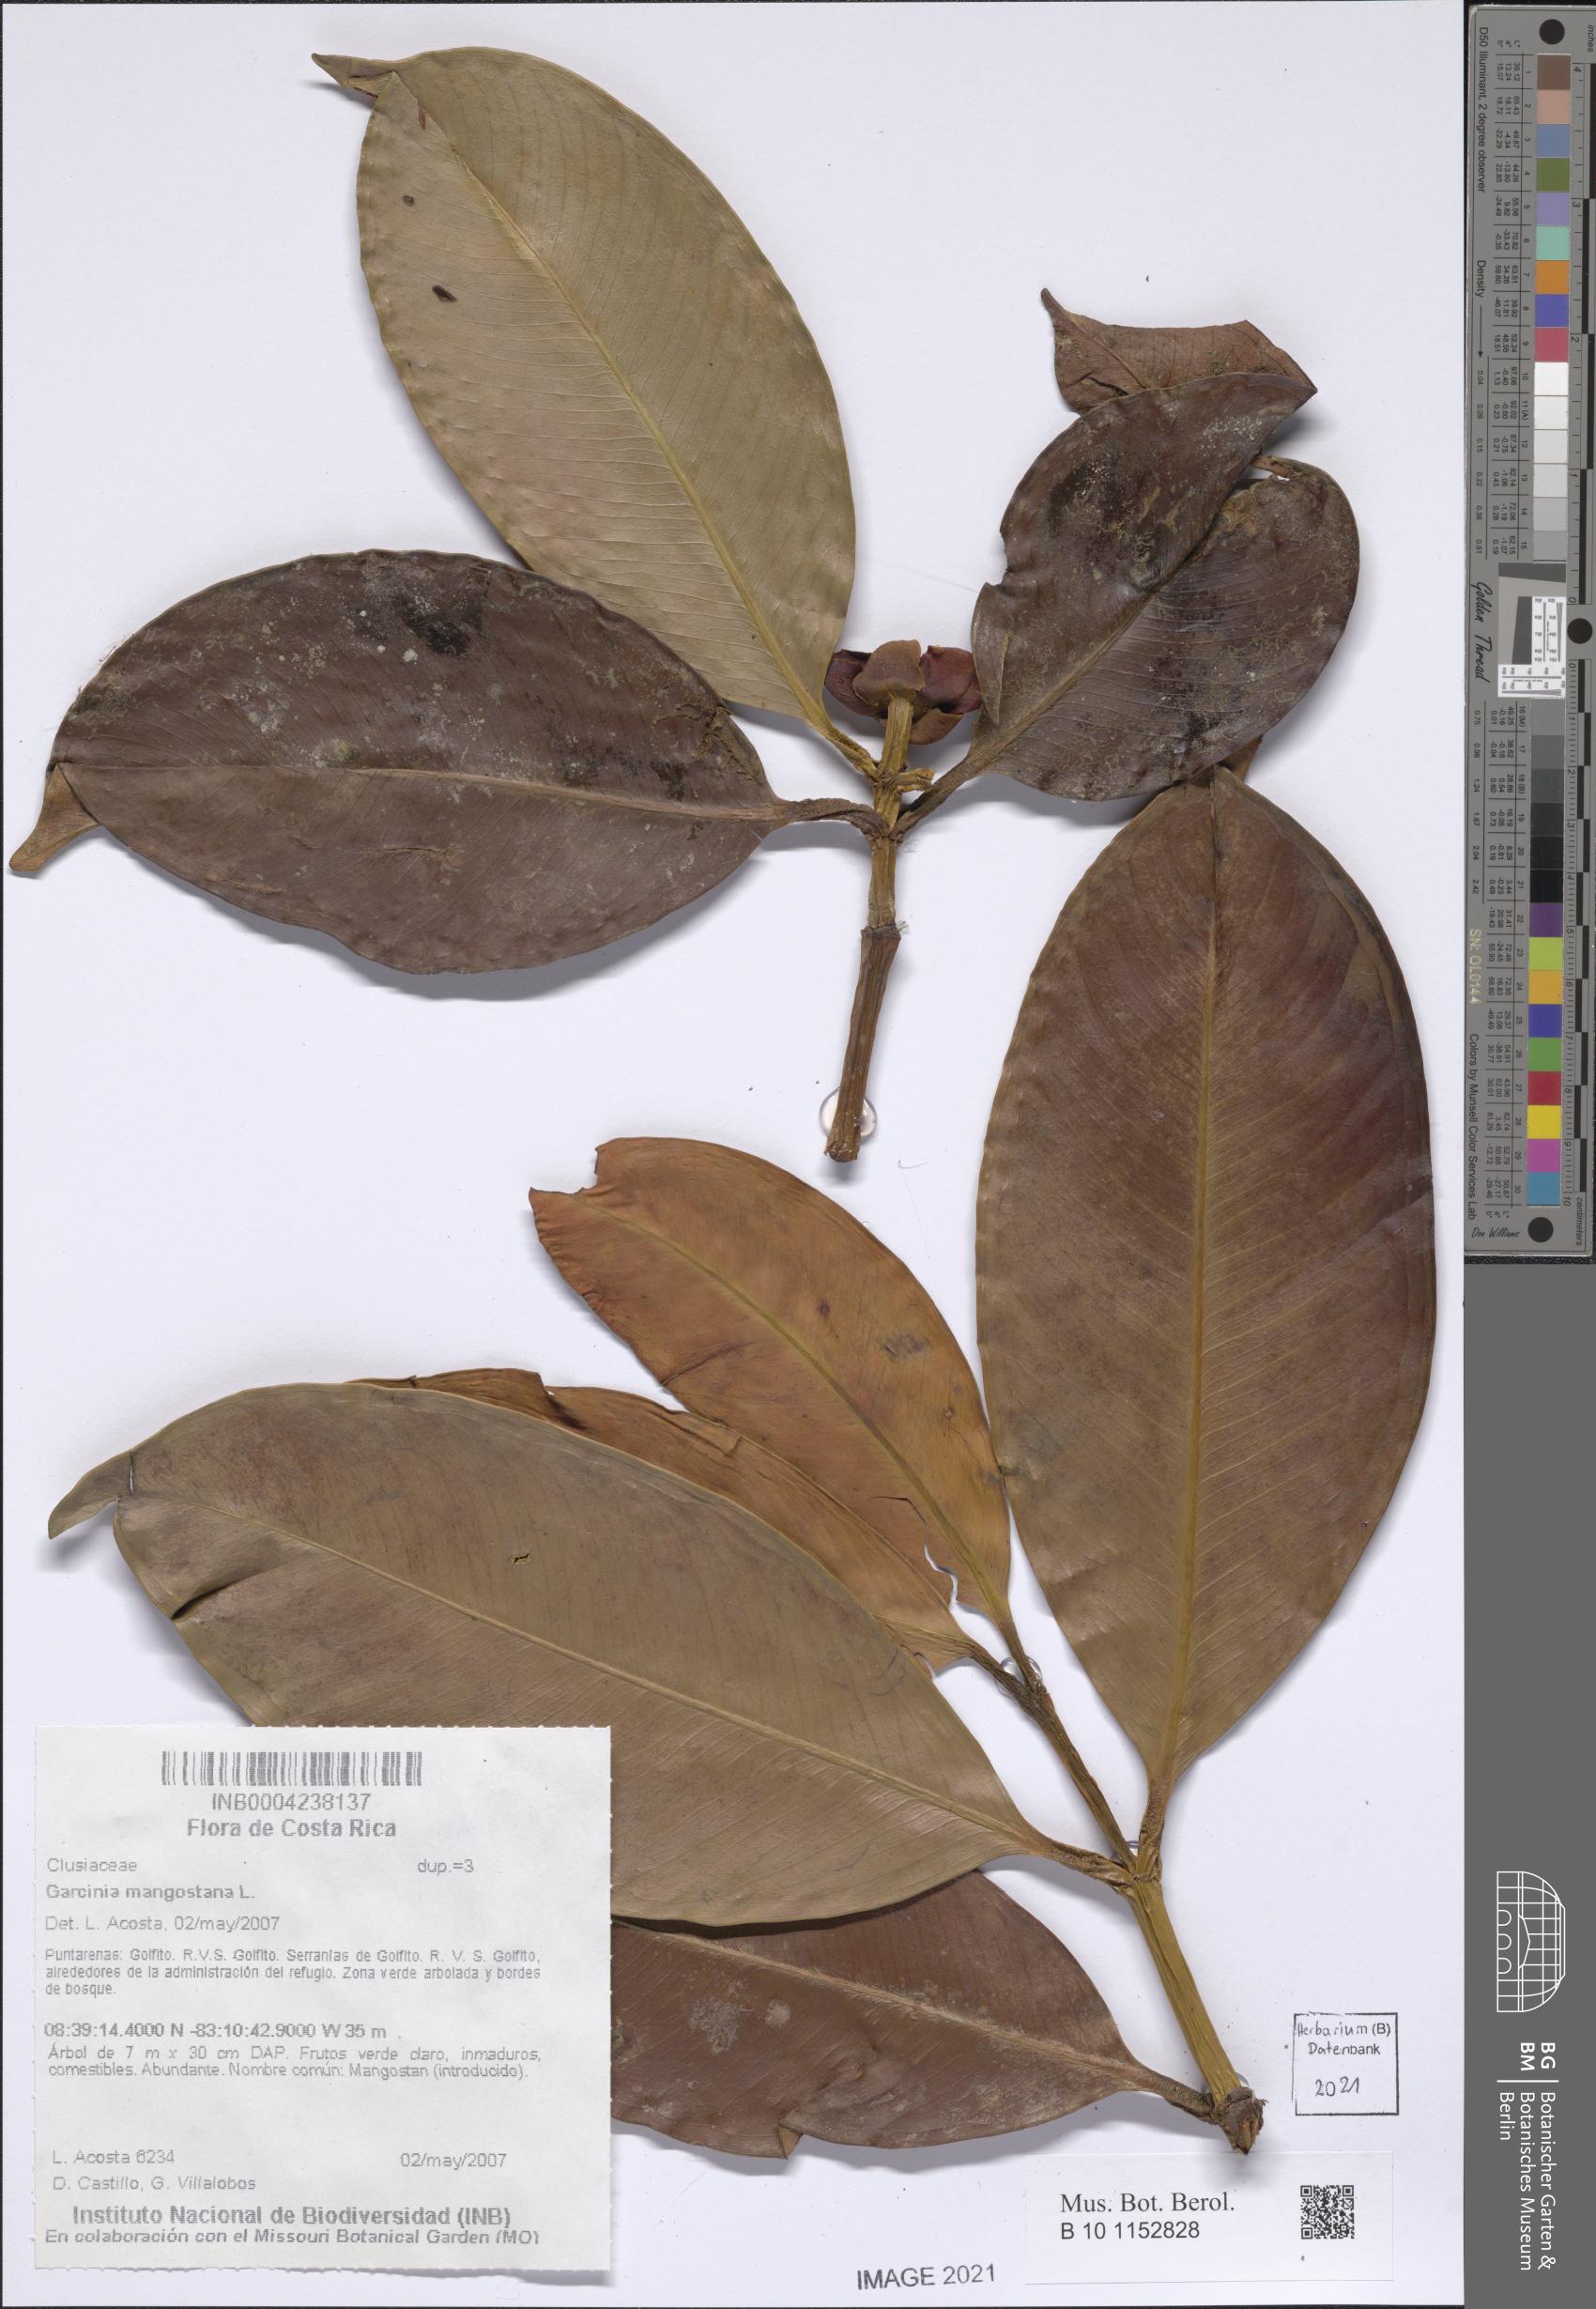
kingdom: Plantae
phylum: Tracheophyta
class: Magnoliopsida
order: Malpighiales
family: Clusiaceae
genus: Garcinia
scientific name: Garcinia mangostana
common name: Mangosteen
